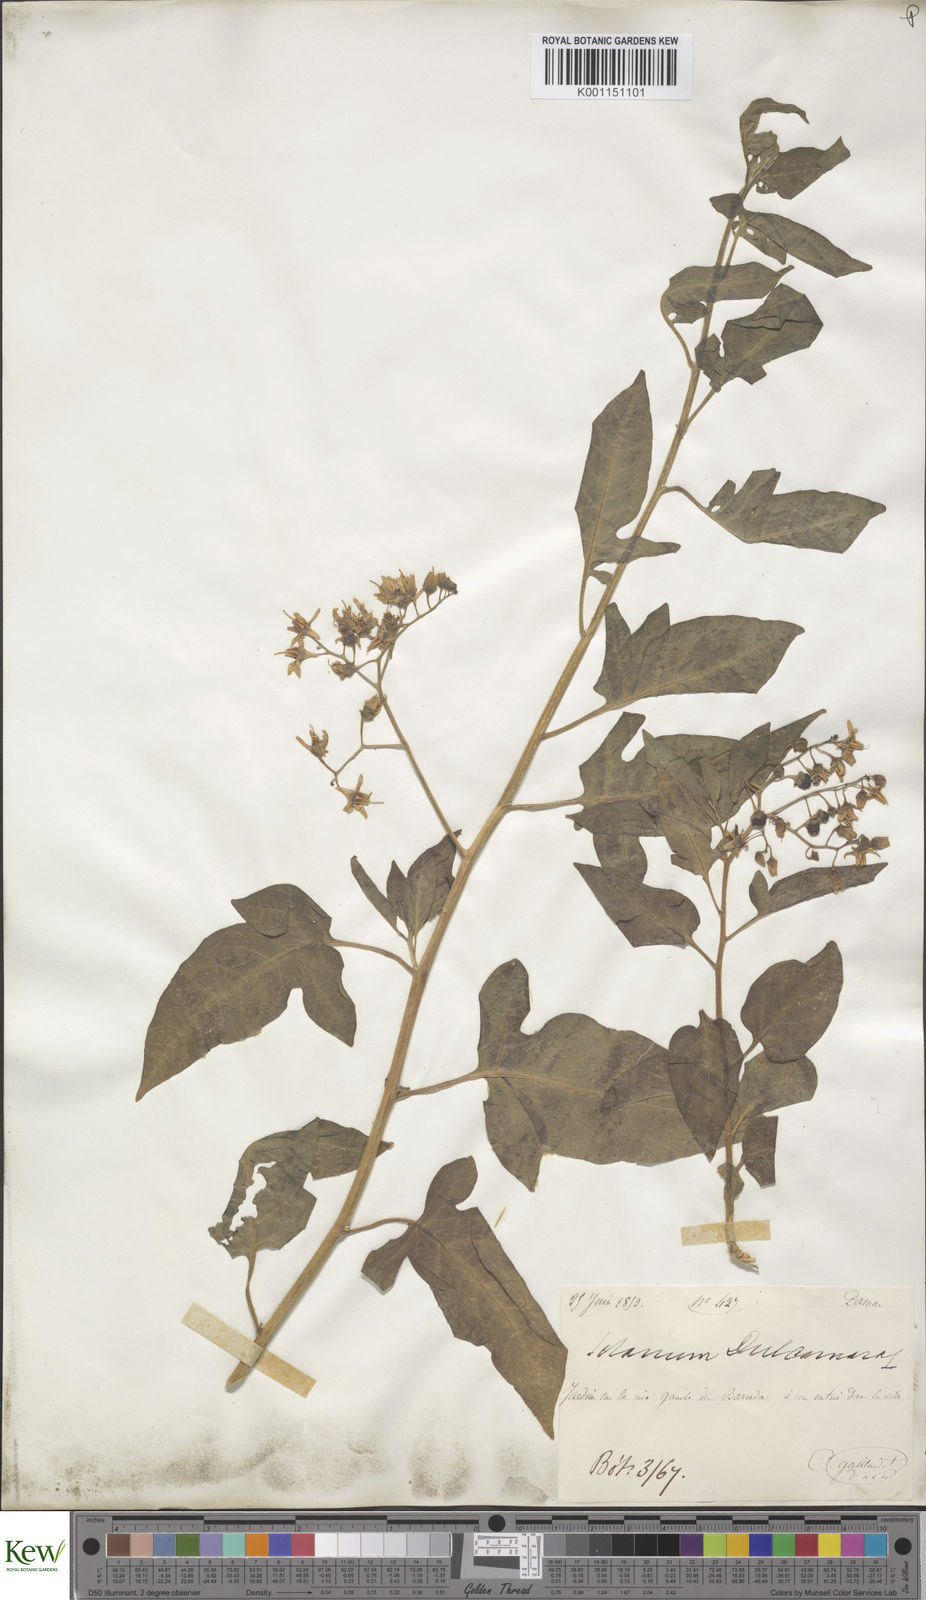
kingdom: Plantae
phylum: Tracheophyta
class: Magnoliopsida
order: Solanales
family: Solanaceae
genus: Solanum
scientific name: Solanum dulcamara
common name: Climbing nightshade
